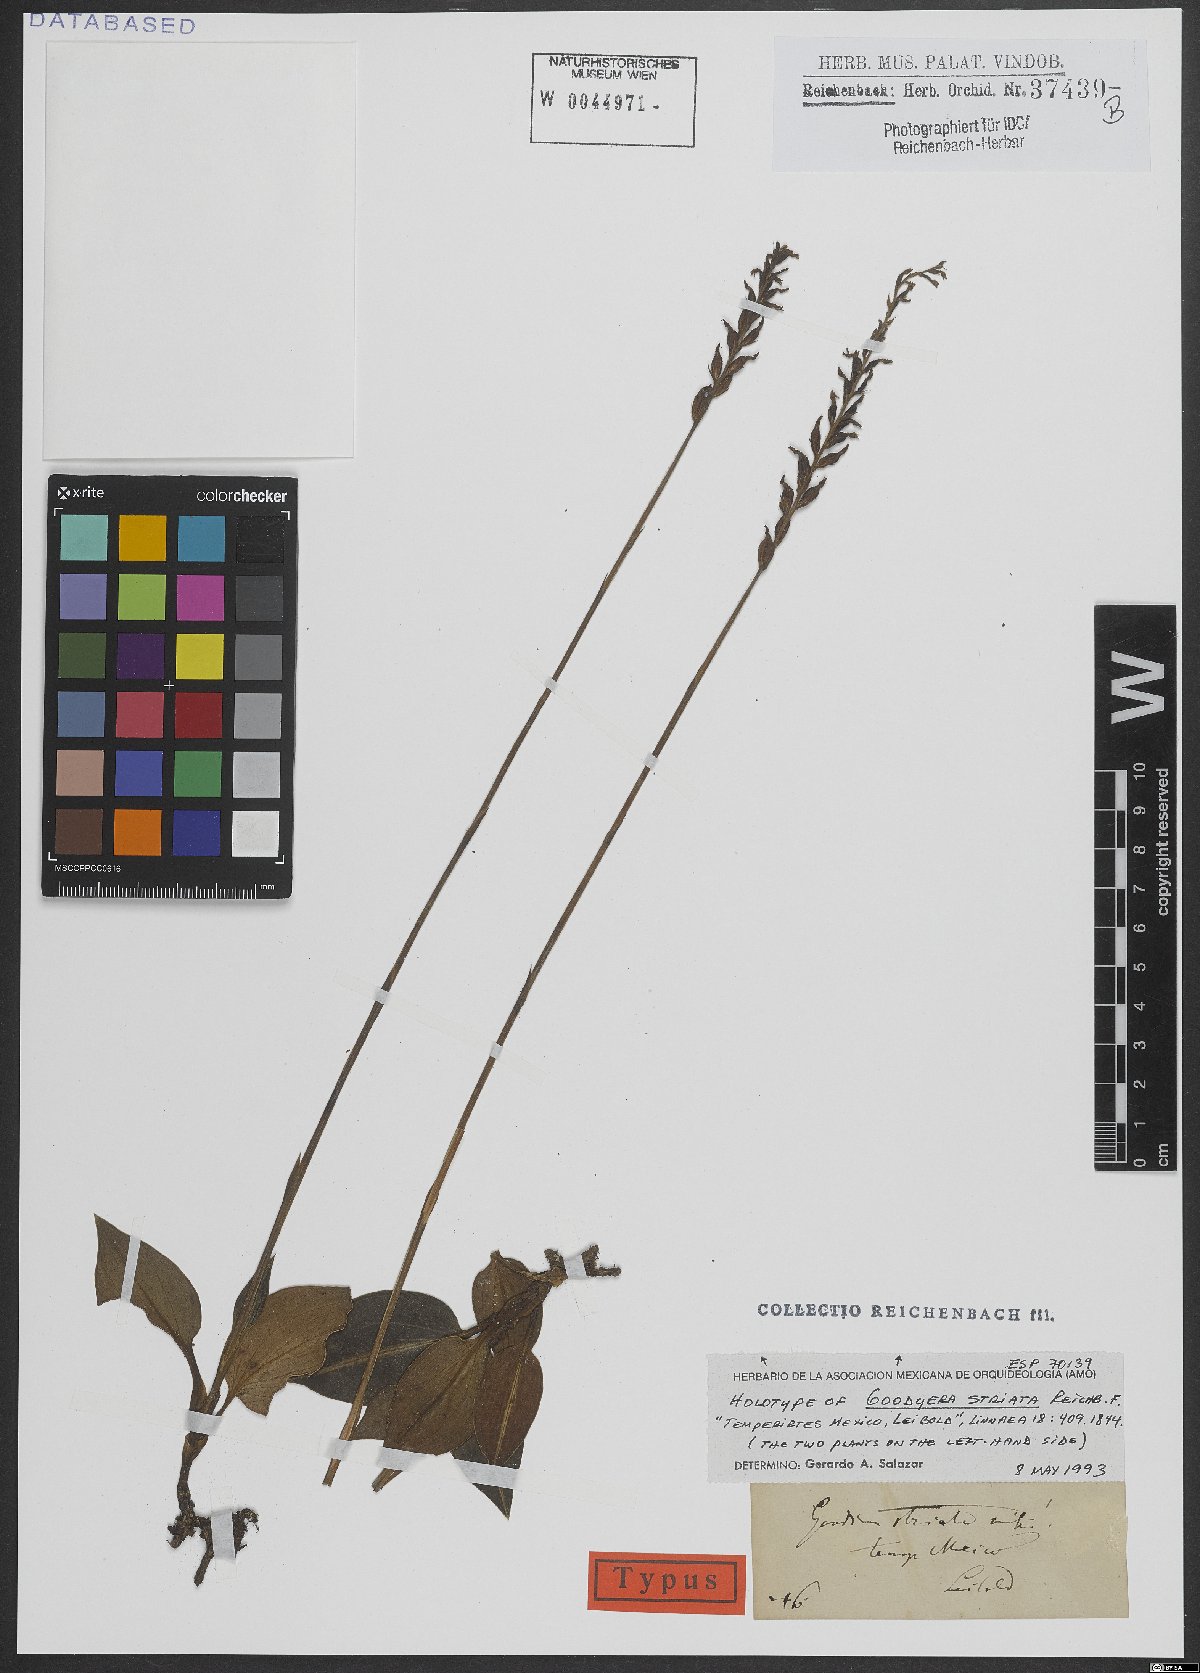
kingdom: Plantae
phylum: Tracheophyta
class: Liliopsida
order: Asparagales
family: Orchidaceae
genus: Goodyera
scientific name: Goodyera striata
